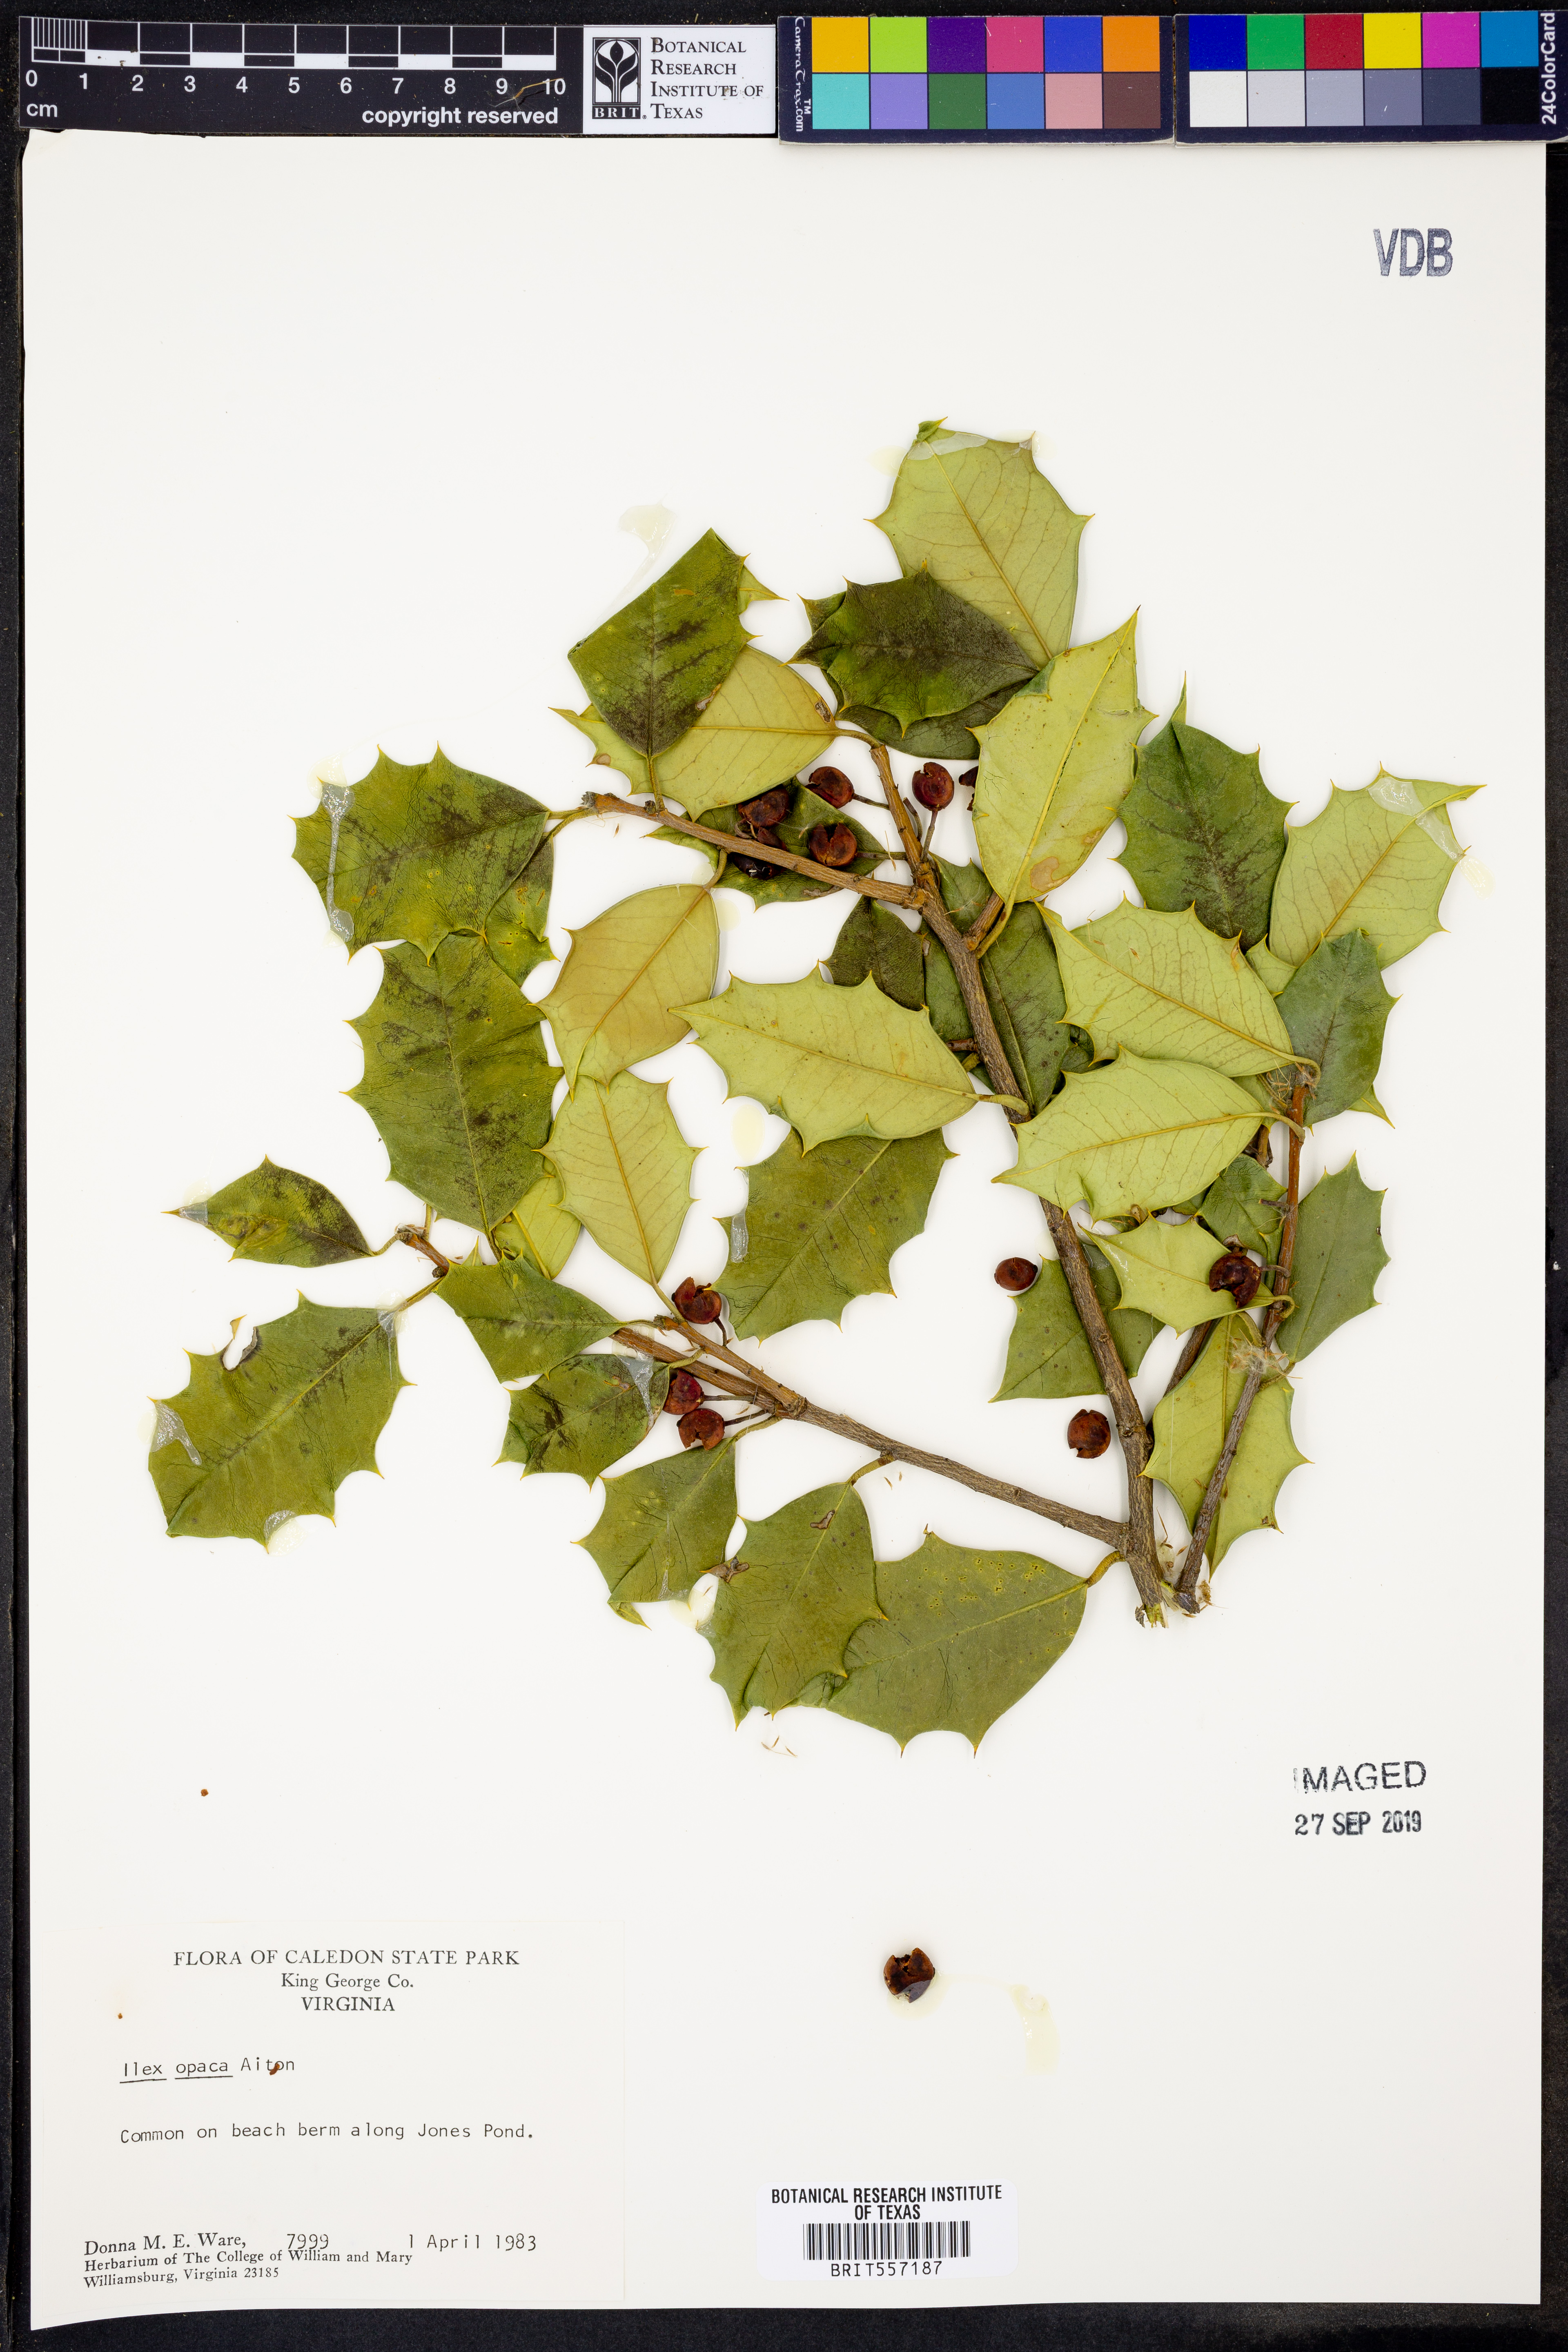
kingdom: Plantae
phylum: Tracheophyta
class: Magnoliopsida
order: Aquifoliales
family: Aquifoliaceae
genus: Ilex
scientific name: Ilex opaca
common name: American holly
